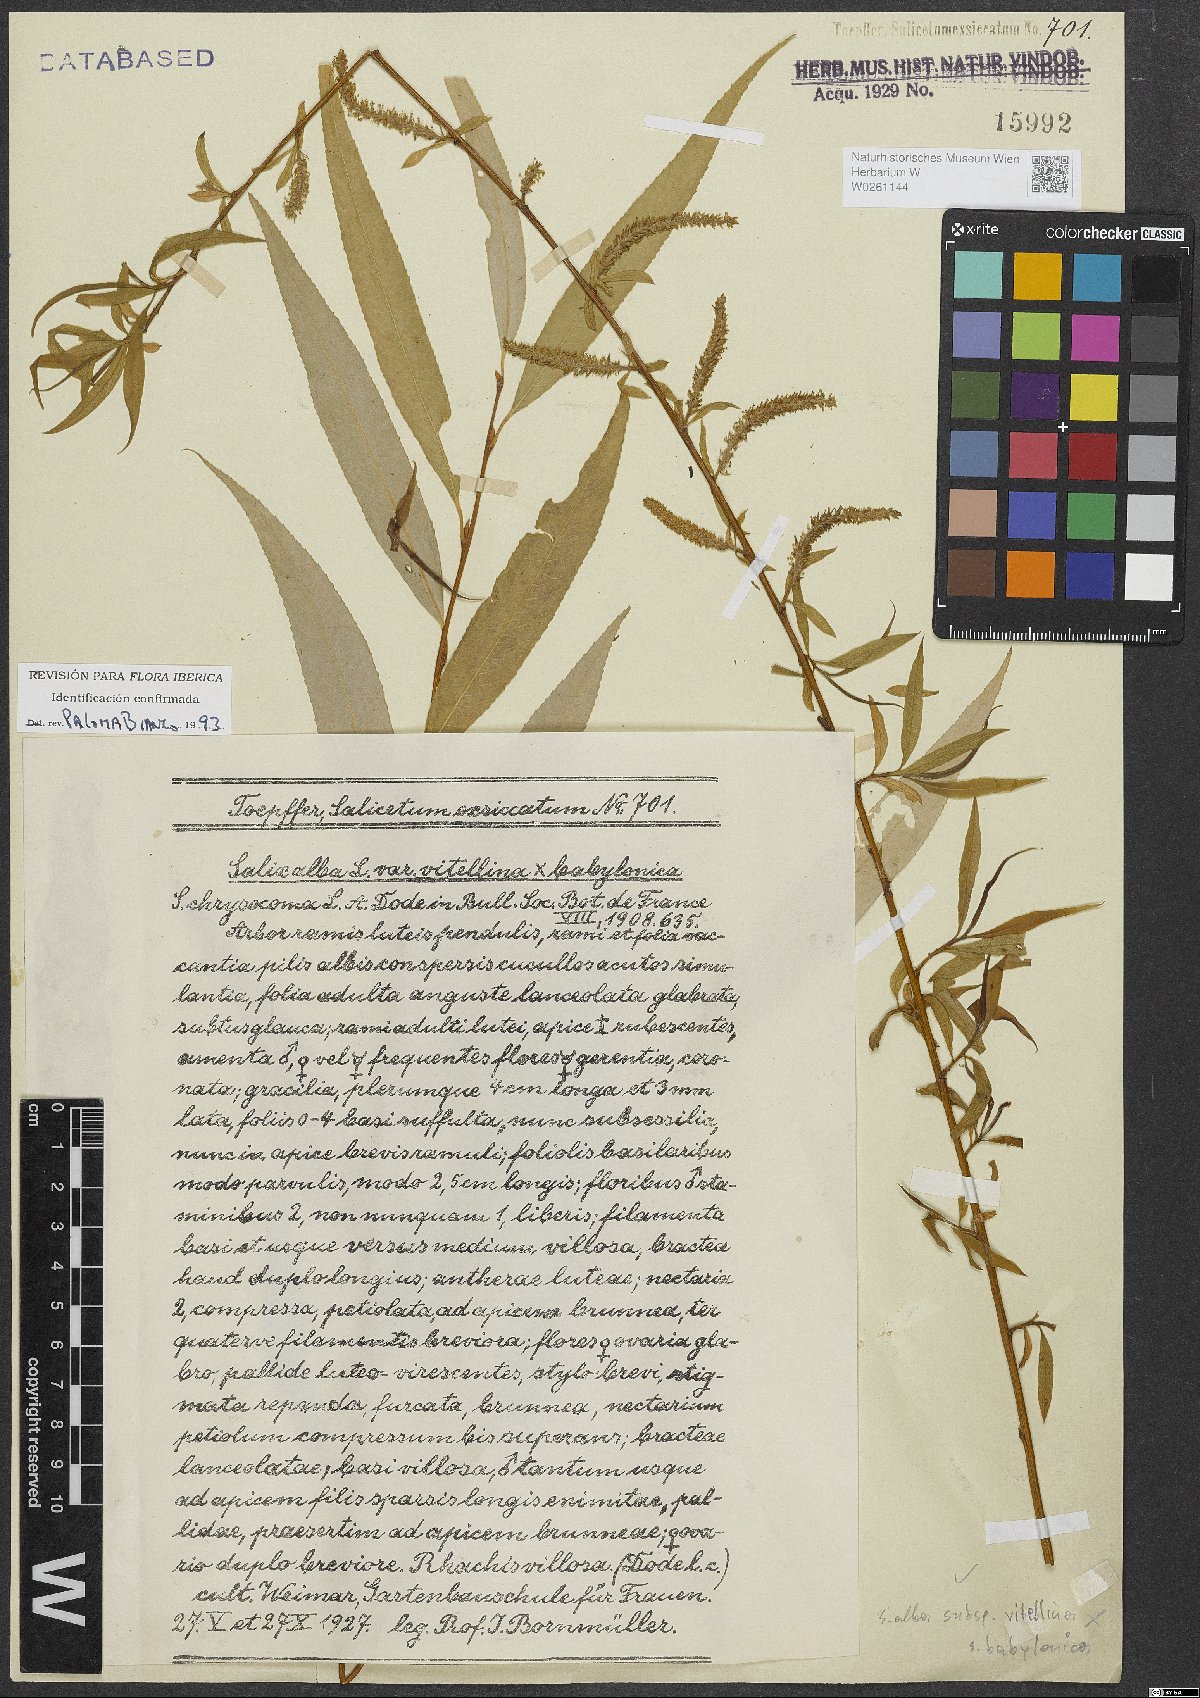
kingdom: Plantae
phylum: Tracheophyta
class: Magnoliopsida
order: Malpighiales
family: Salicaceae
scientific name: Salicaceae
